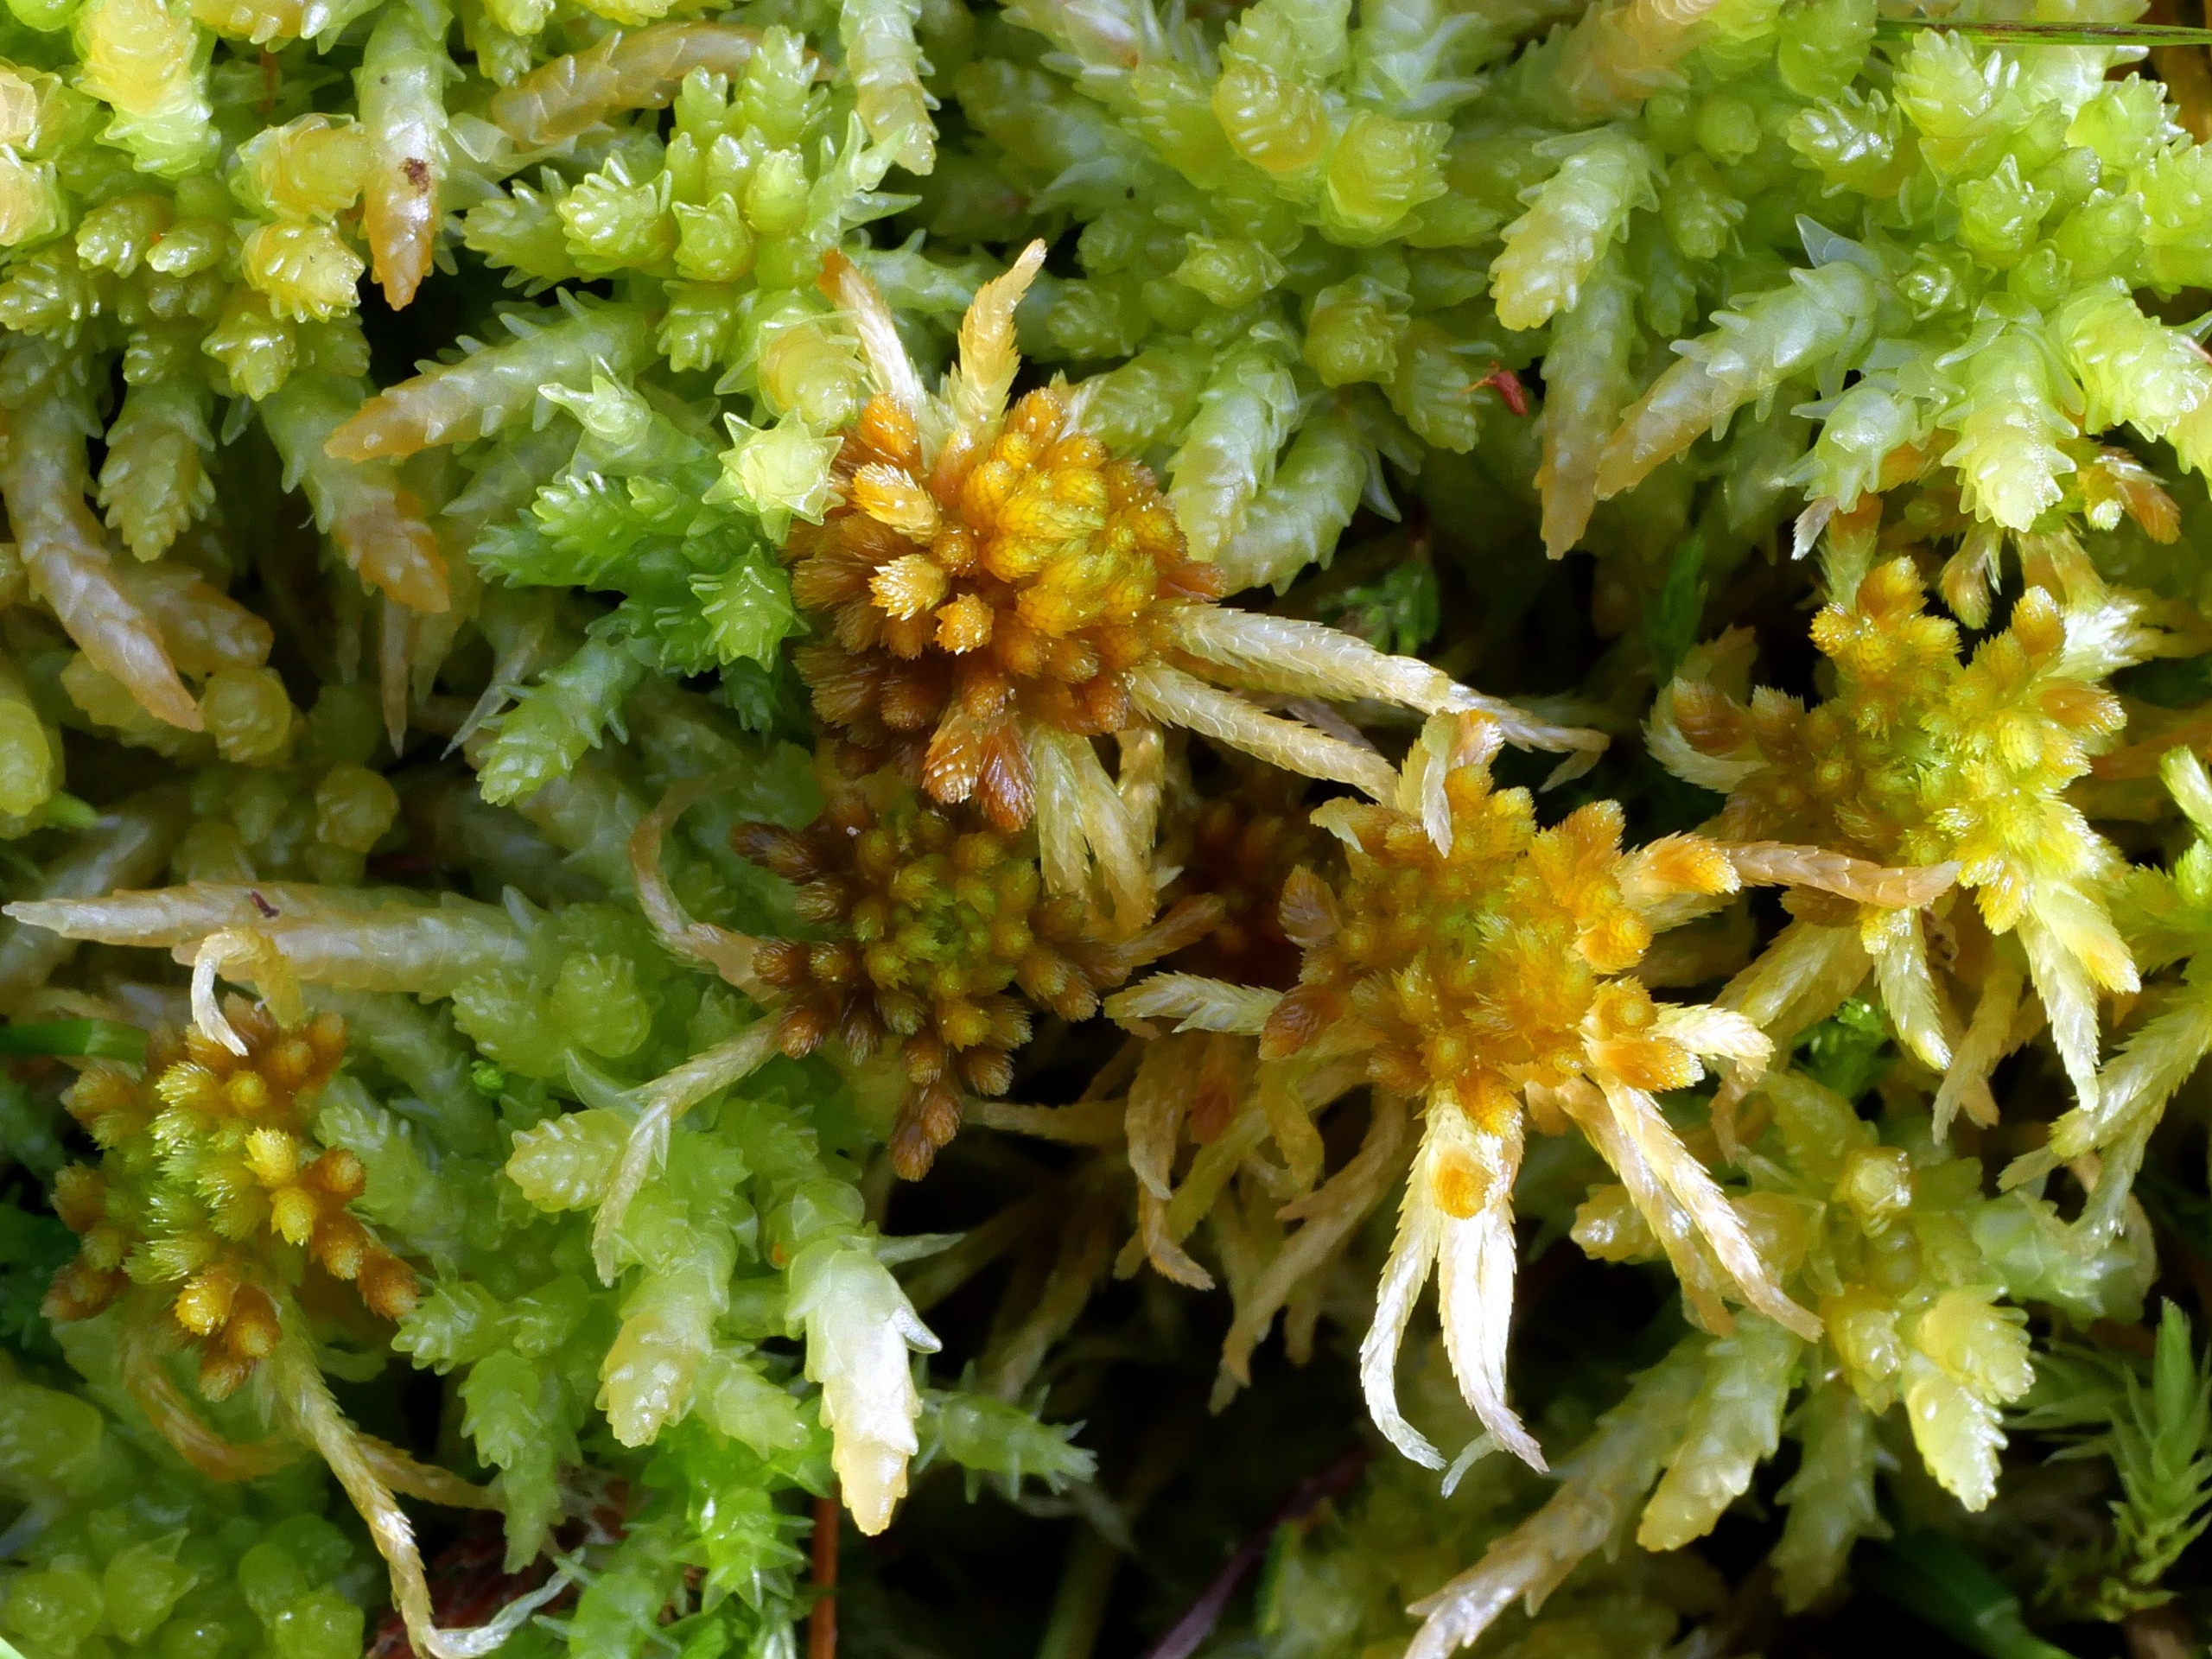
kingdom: Plantae
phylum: Bryophyta
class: Sphagnopsida
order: Sphagnales
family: Sphagnaceae
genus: Sphagnum
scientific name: Sphagnum flexuosum
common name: Kuplet tørvemos
